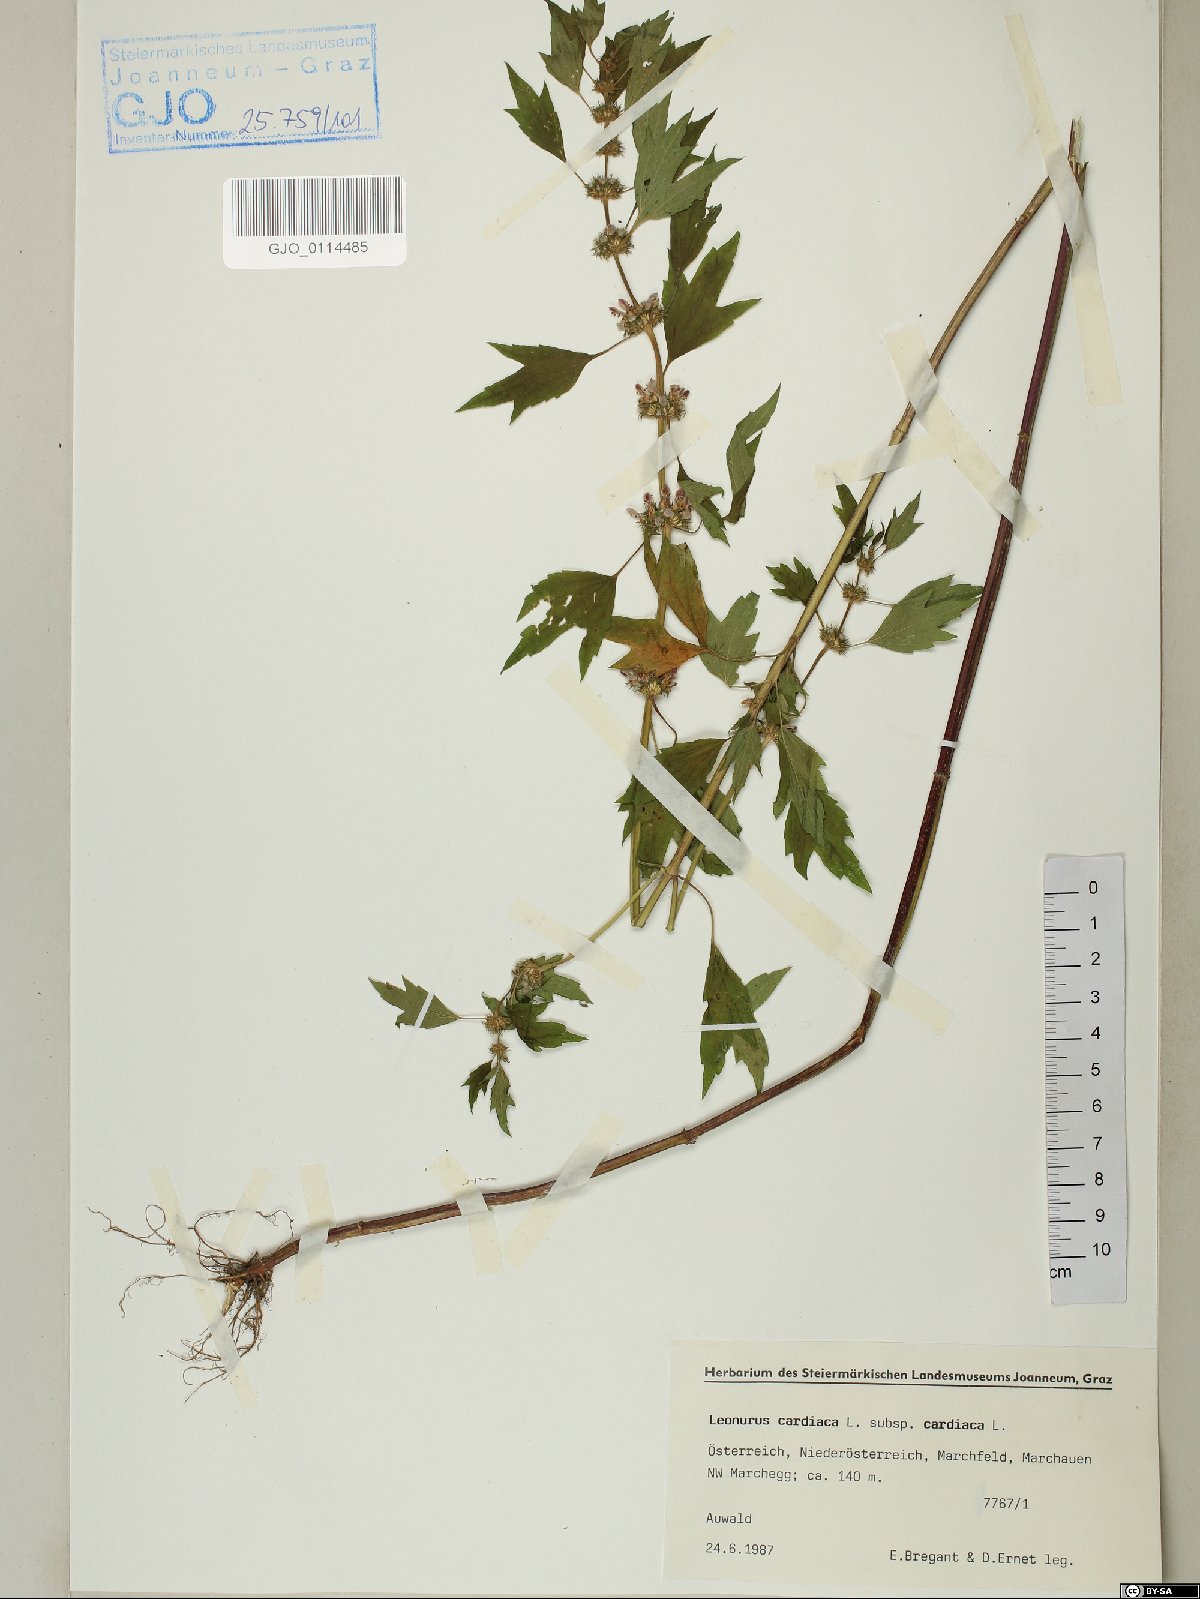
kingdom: Plantae
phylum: Tracheophyta
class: Magnoliopsida
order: Lamiales
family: Lamiaceae
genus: Leonurus
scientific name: Leonurus cardiaca
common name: Motherwort
